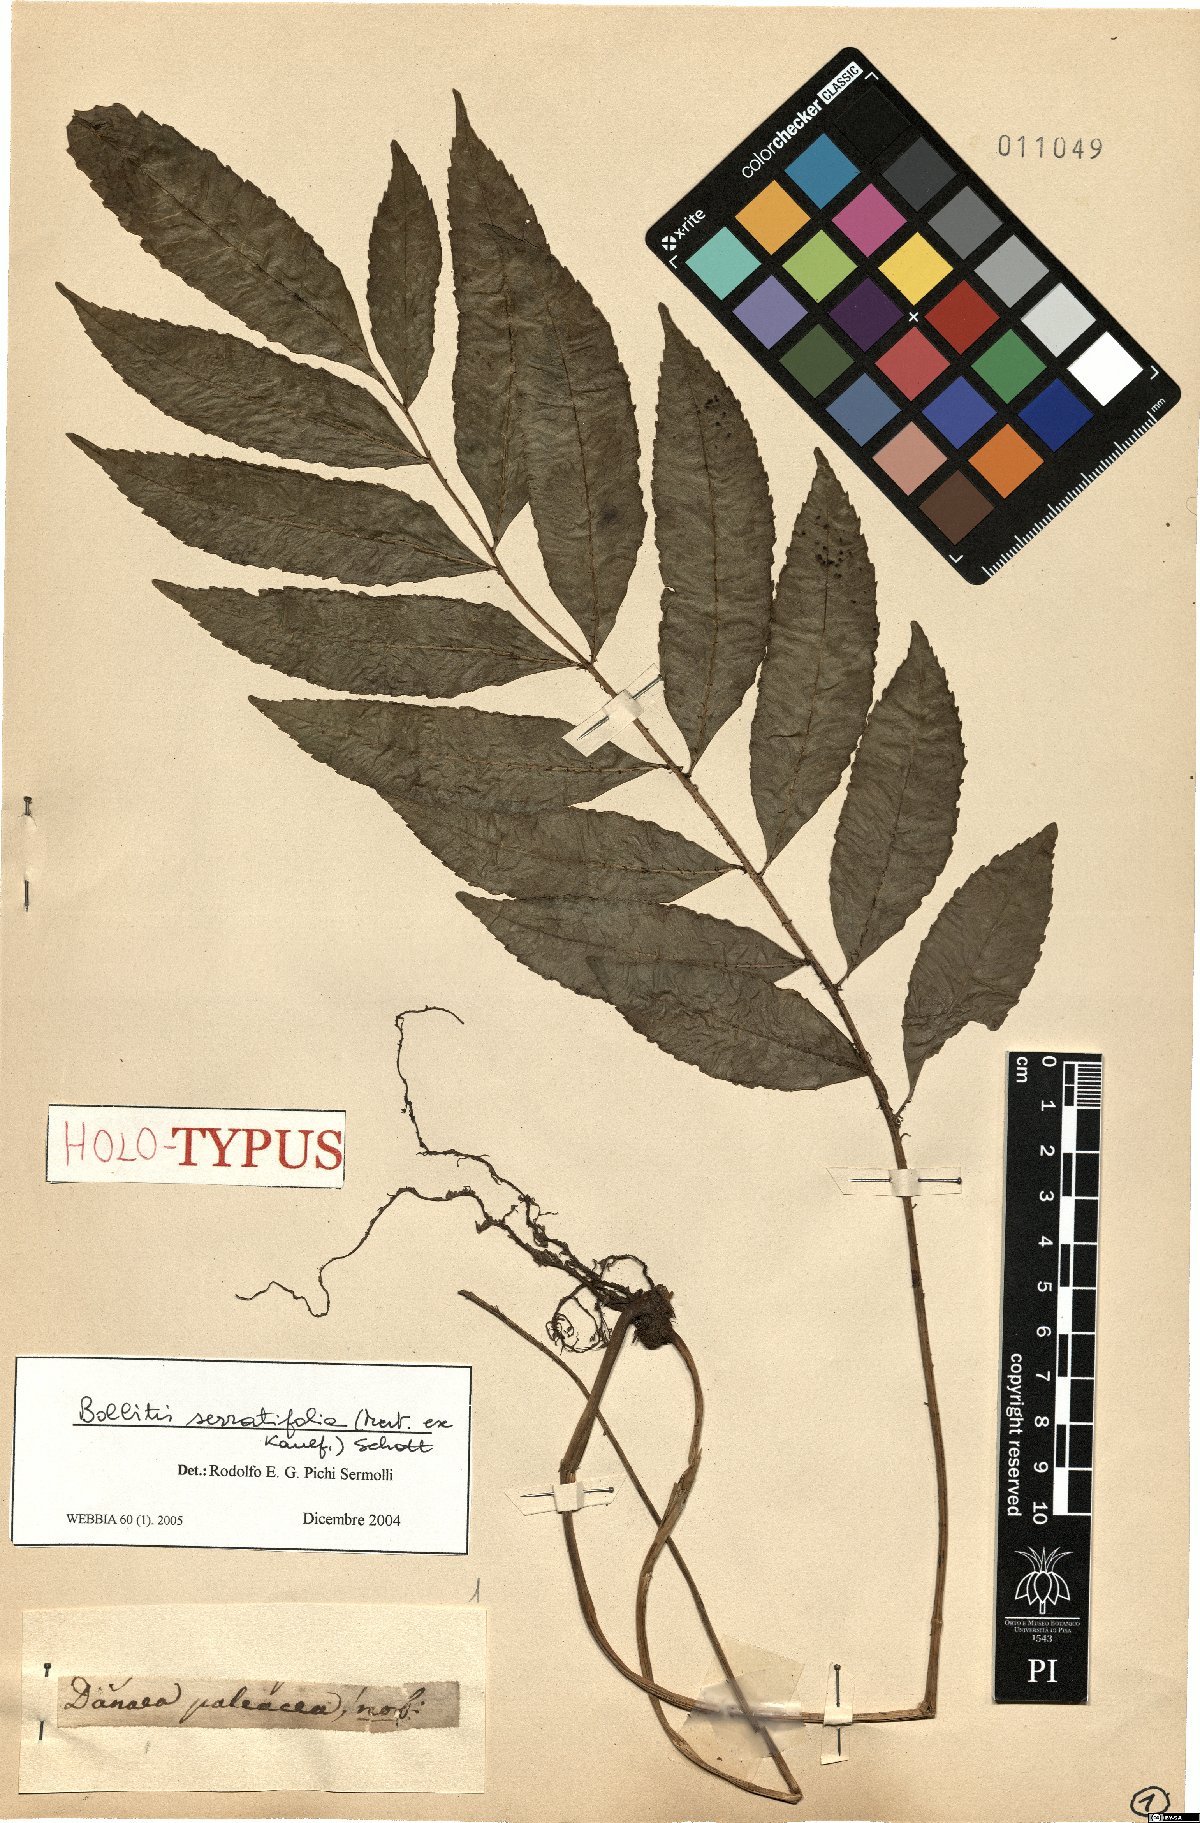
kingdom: Plantae
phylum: Tracheophyta
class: Polypodiopsida
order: Polypodiales
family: Dryopteridaceae
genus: Bolbitis
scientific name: Bolbitis serratifolia
